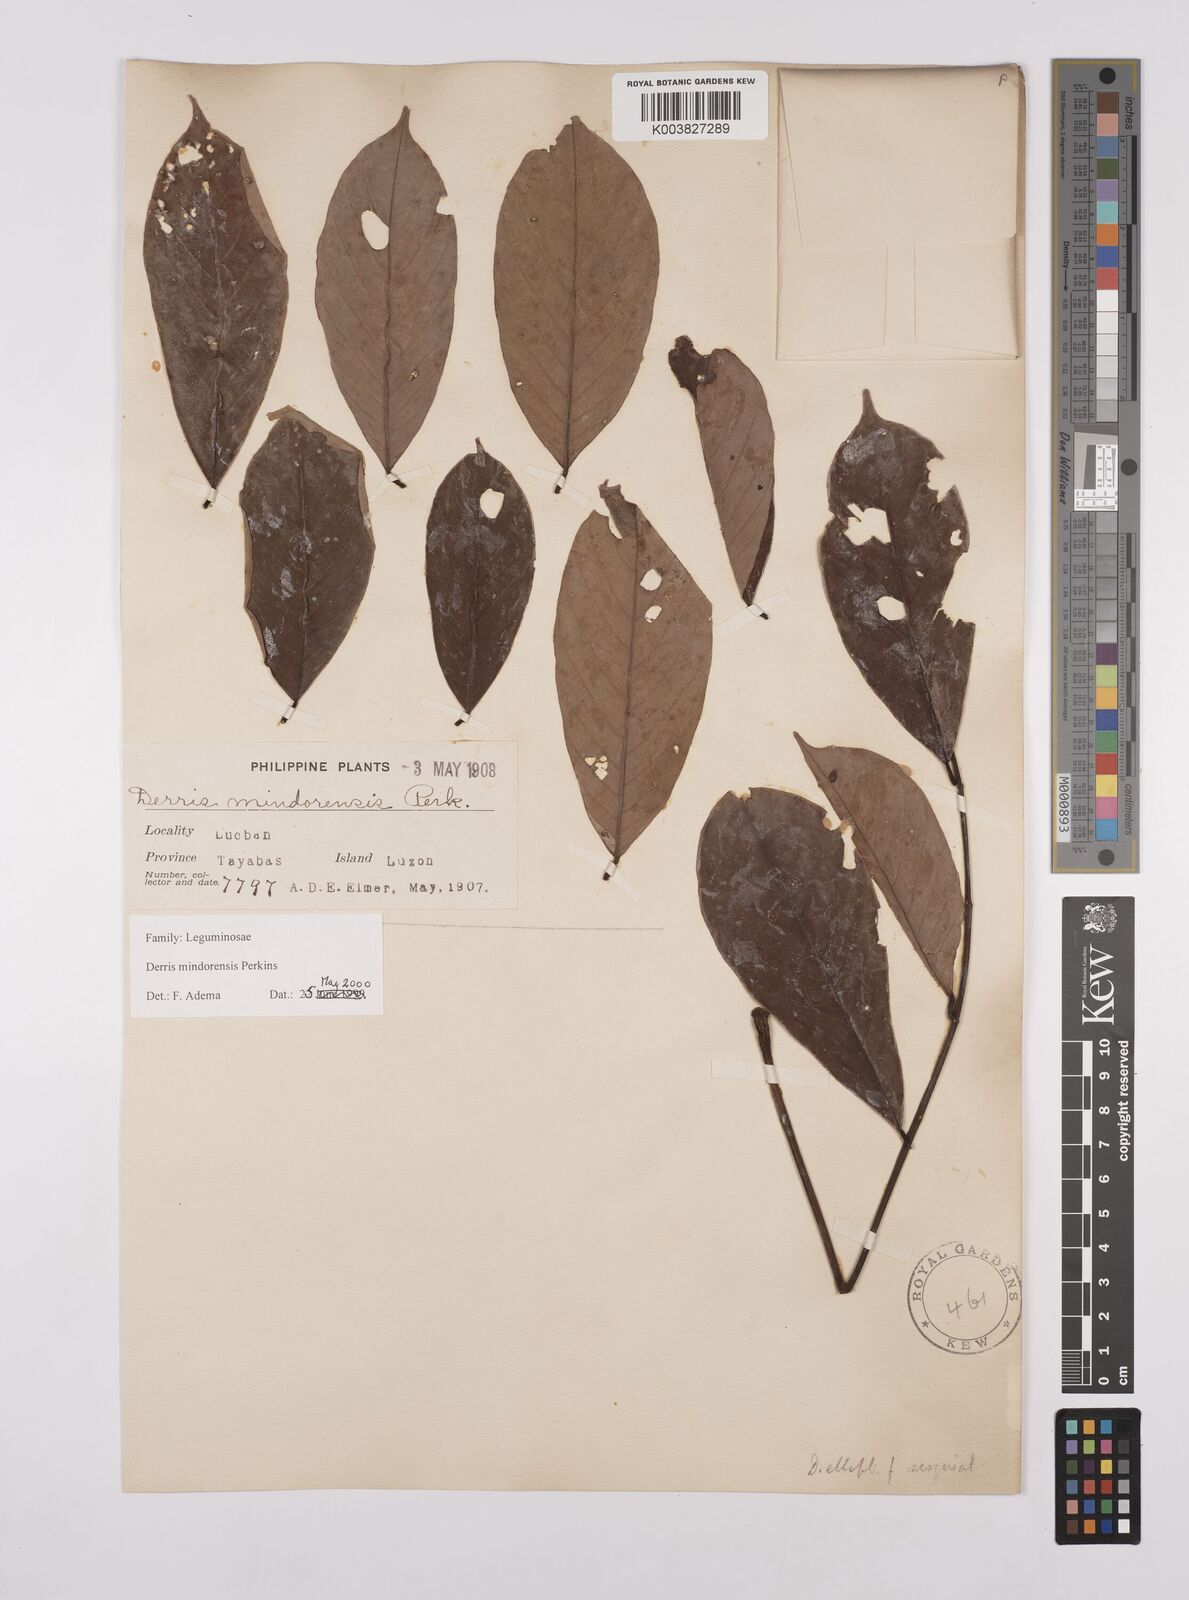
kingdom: Plantae
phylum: Tracheophyta
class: Magnoliopsida
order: Fabales
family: Fabaceae
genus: Derris
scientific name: Derris pubipetala
